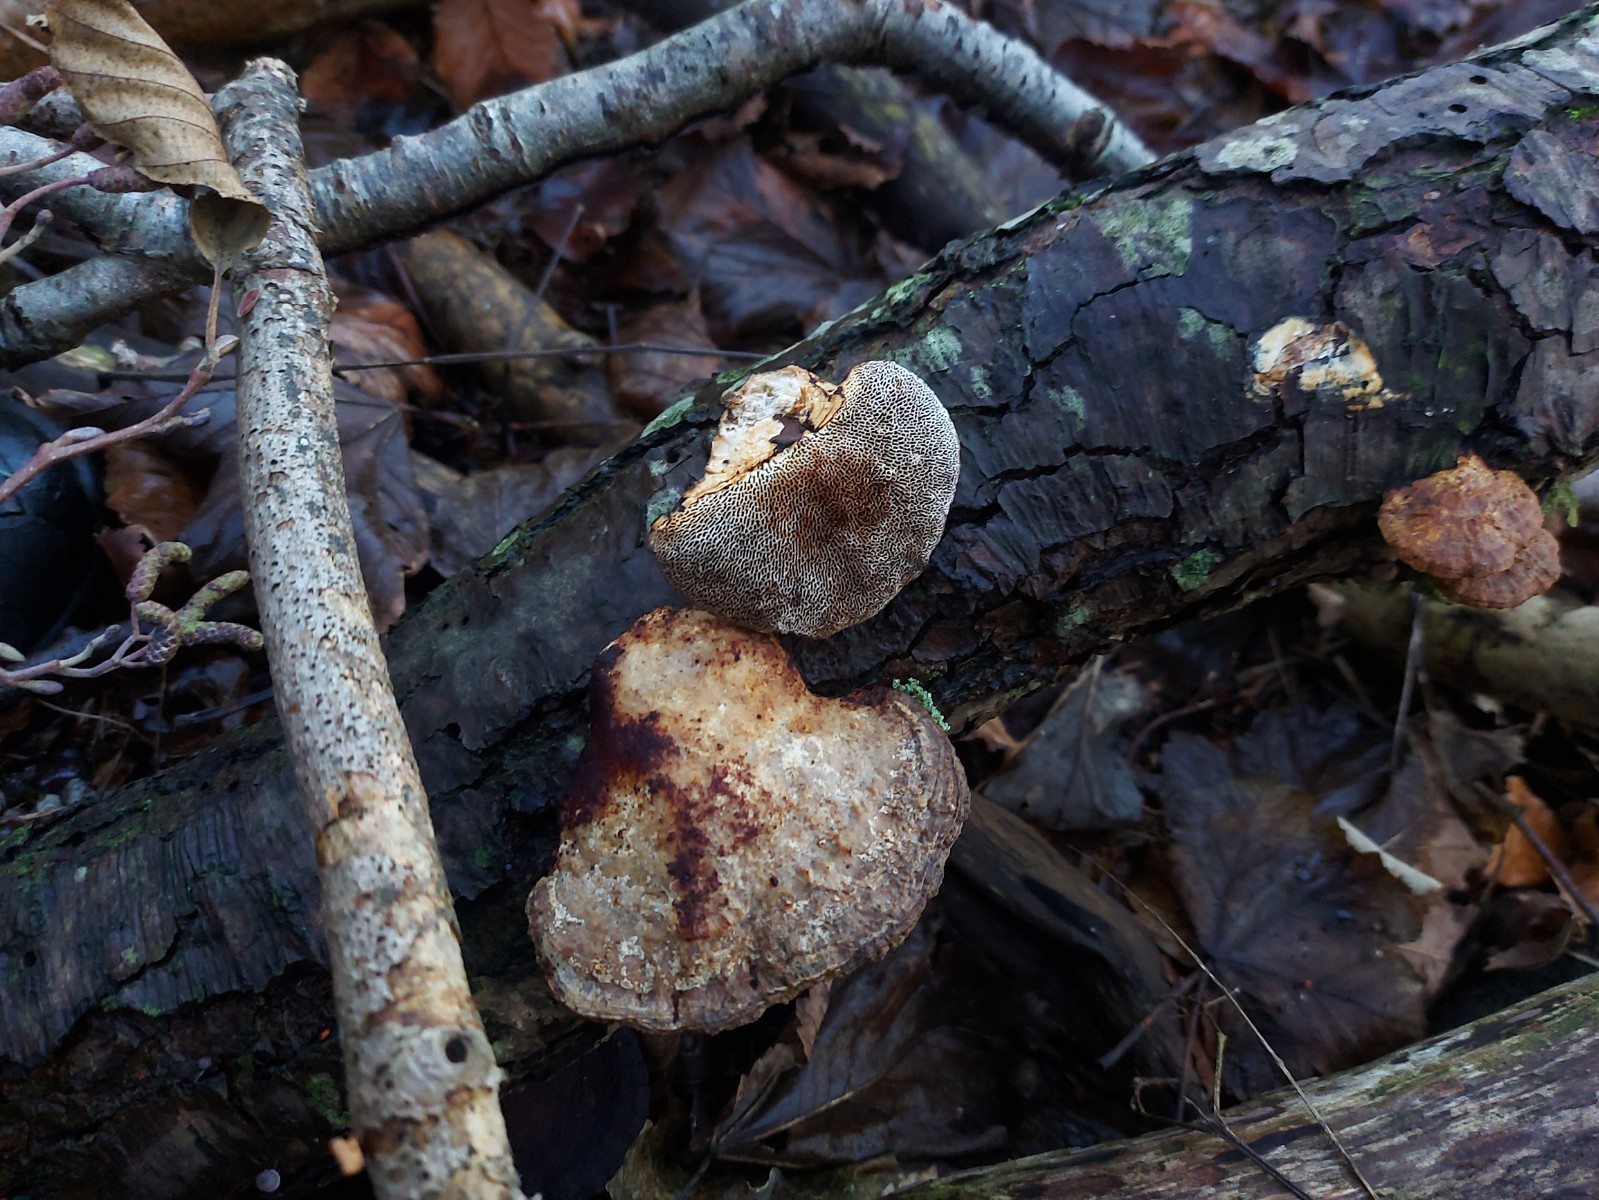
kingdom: Fungi
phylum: Basidiomycota
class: Agaricomycetes
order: Polyporales
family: Polyporaceae
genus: Daedaleopsis
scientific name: Daedaleopsis confragosa
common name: rødmende læderporesvamp
